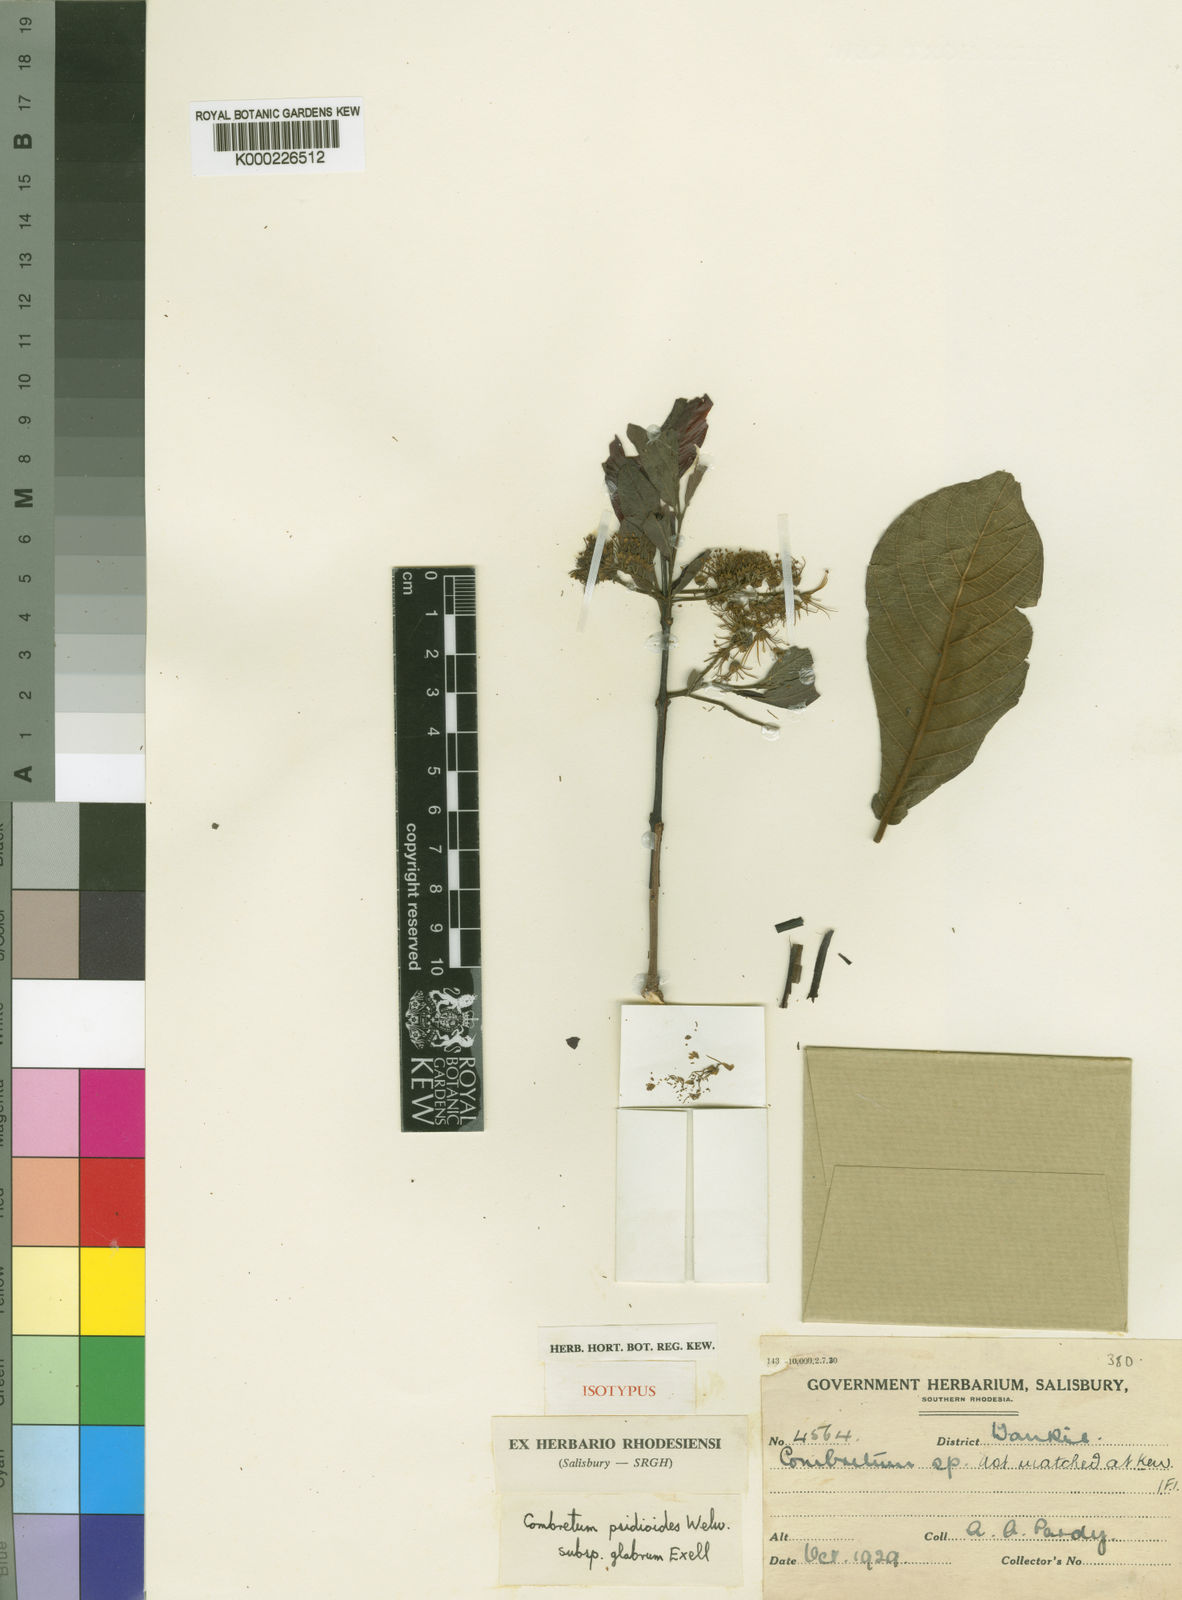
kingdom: Plantae
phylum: Tracheophyta
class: Magnoliopsida
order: Myrtales
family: Combretaceae
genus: Combretum
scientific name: Combretum psidioides
